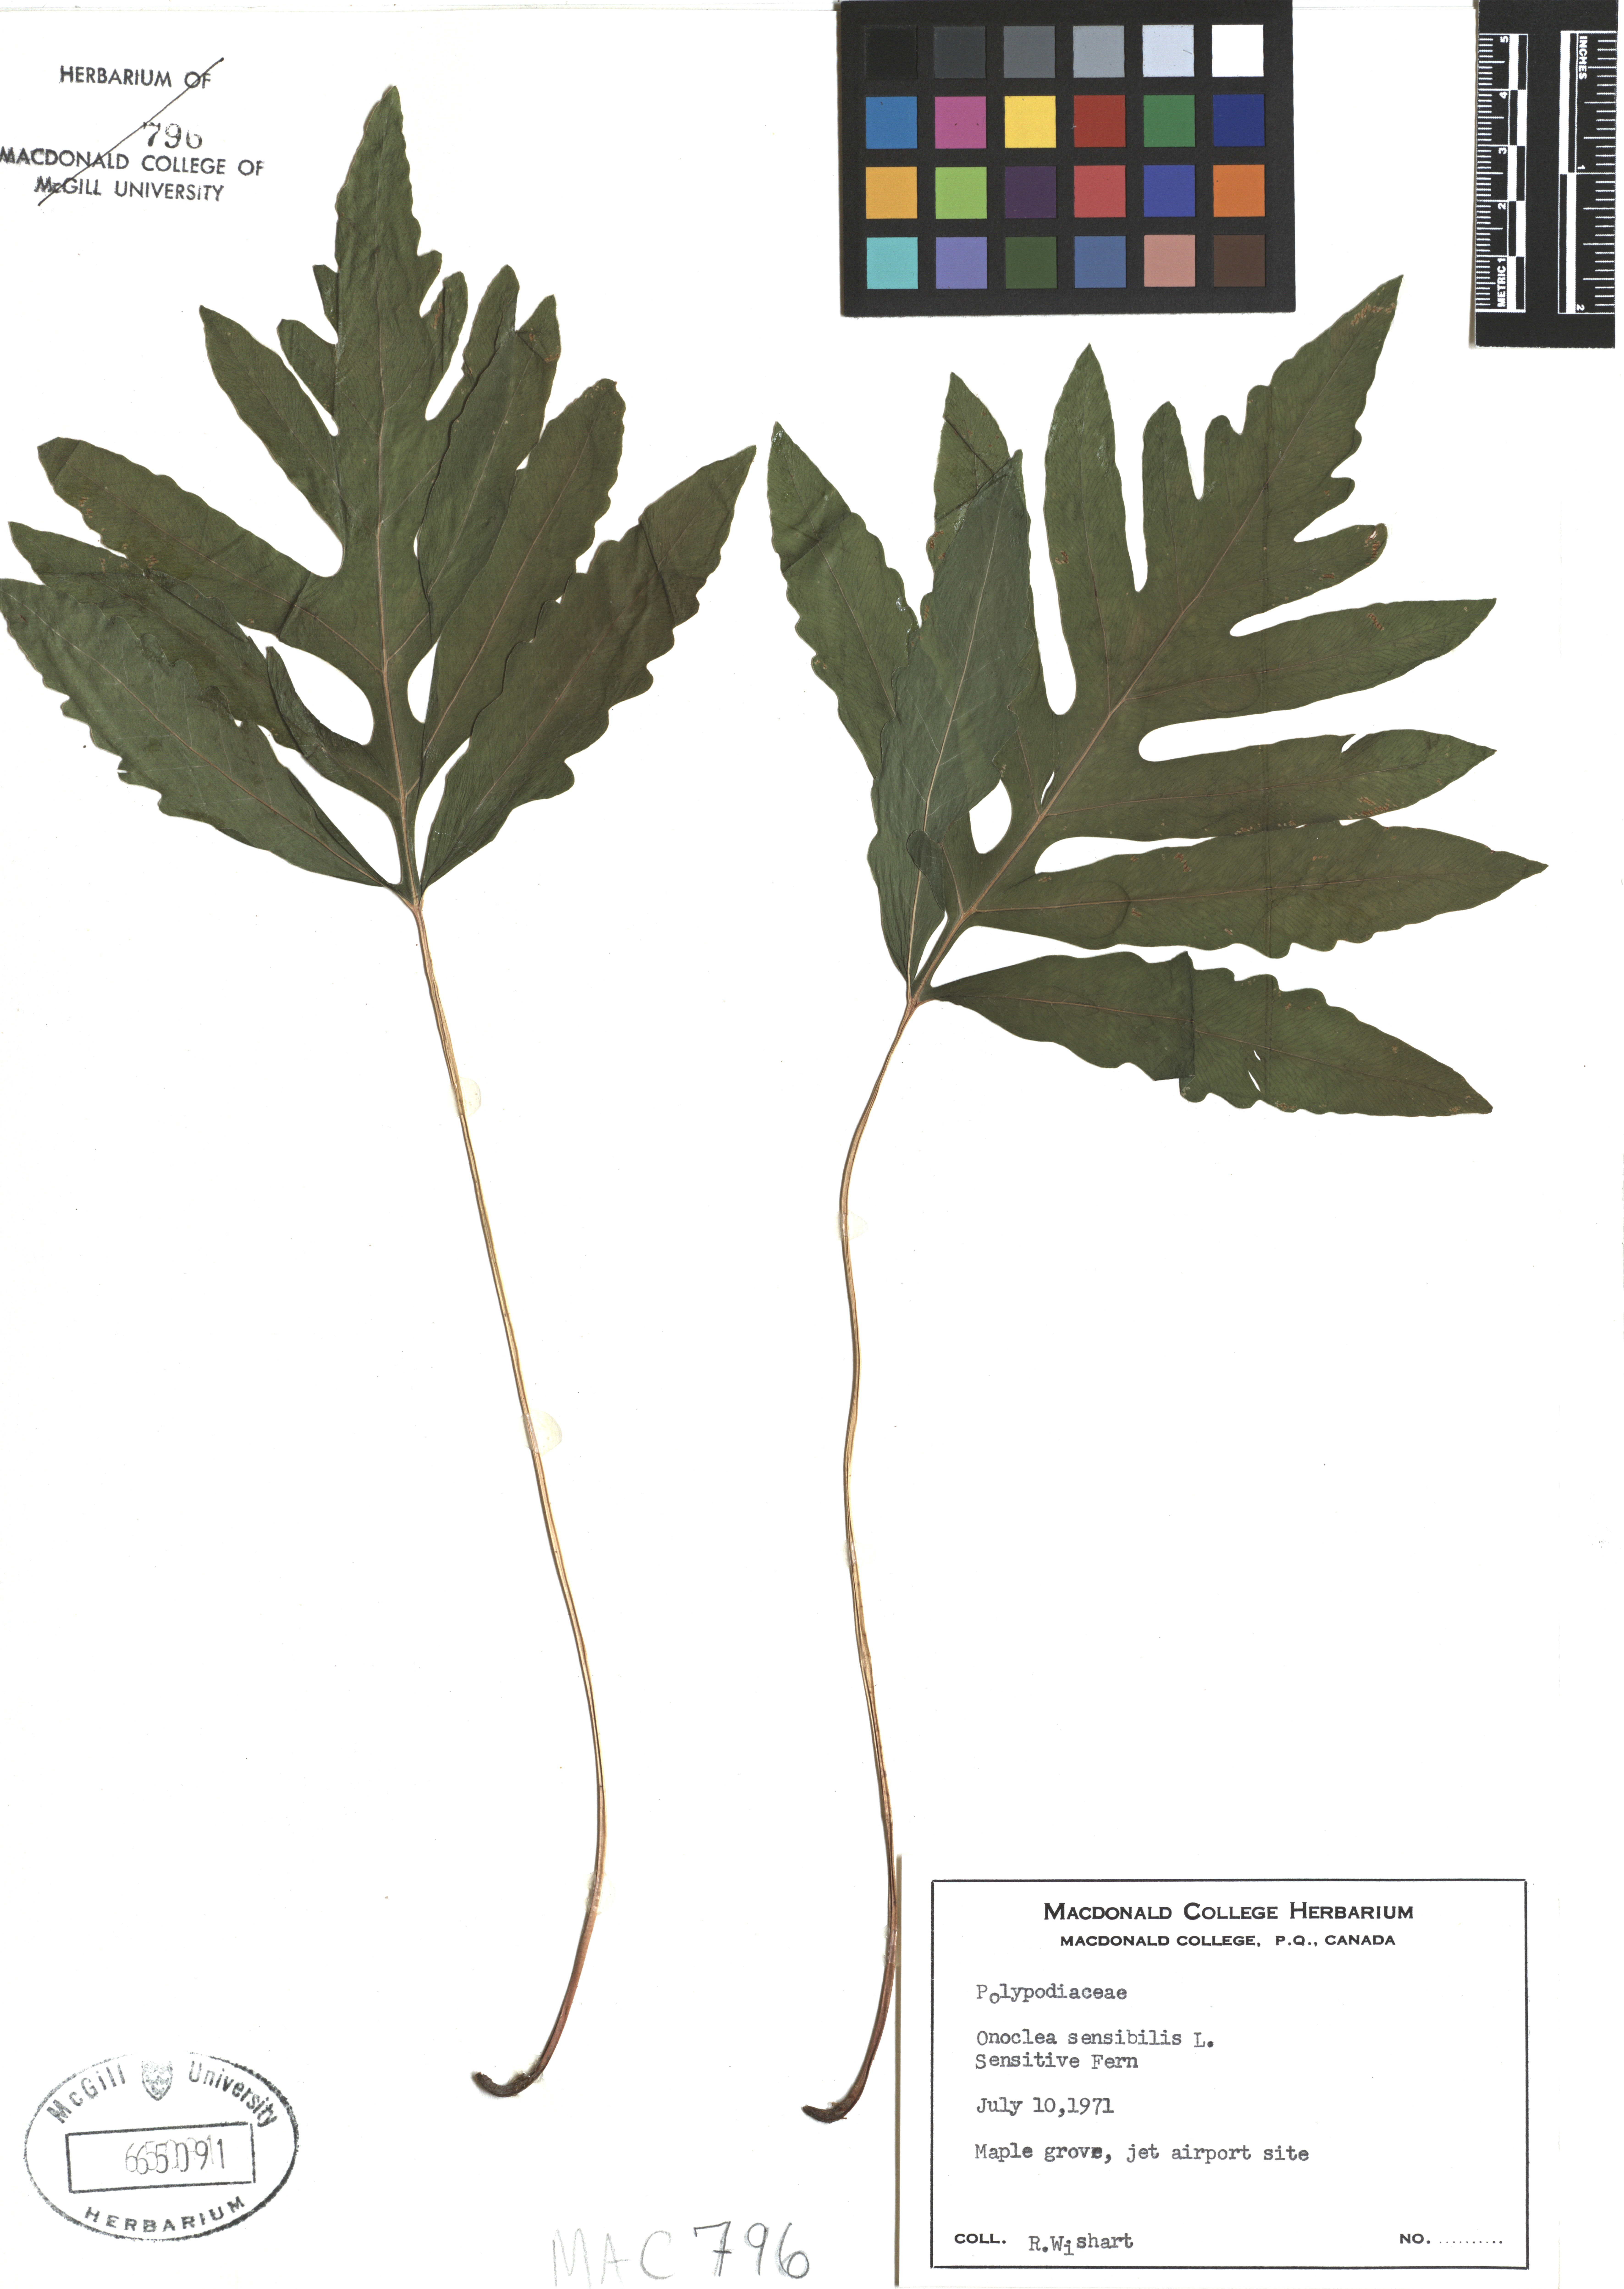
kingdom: Plantae
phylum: Tracheophyta
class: Polypodiopsida
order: Polypodiales
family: Onocleaceae
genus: Onoclea
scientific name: Onoclea sensibilis
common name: Sensitive fern
